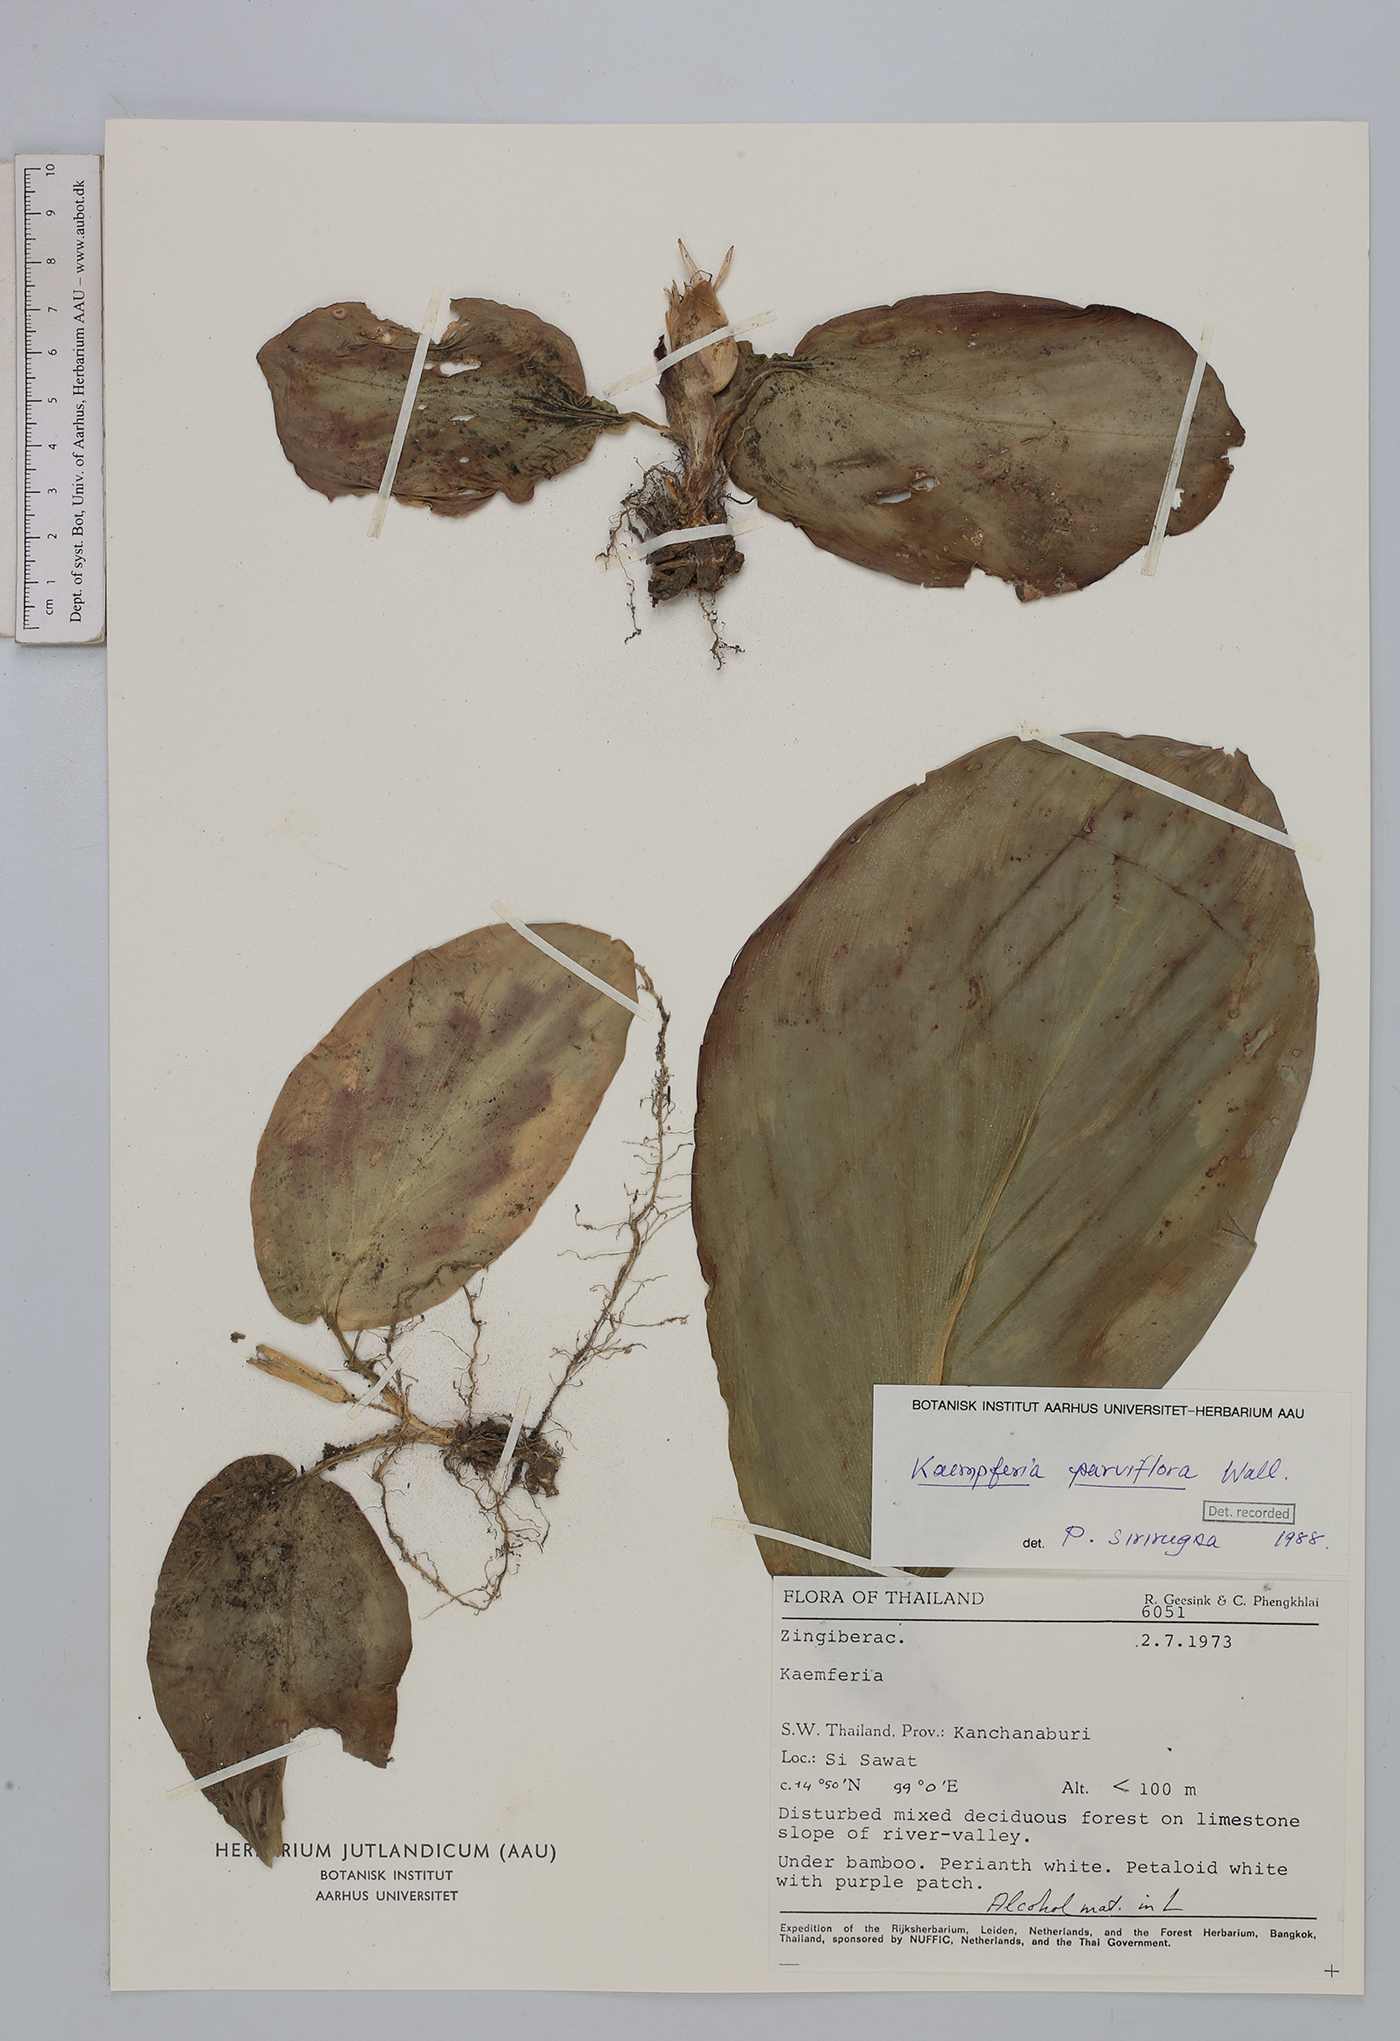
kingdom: Plantae
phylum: Tracheophyta
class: Liliopsida
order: Zingiberales
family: Zingiberaceae
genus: Kaempferia
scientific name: Kaempferia parviflora
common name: Black galingale
